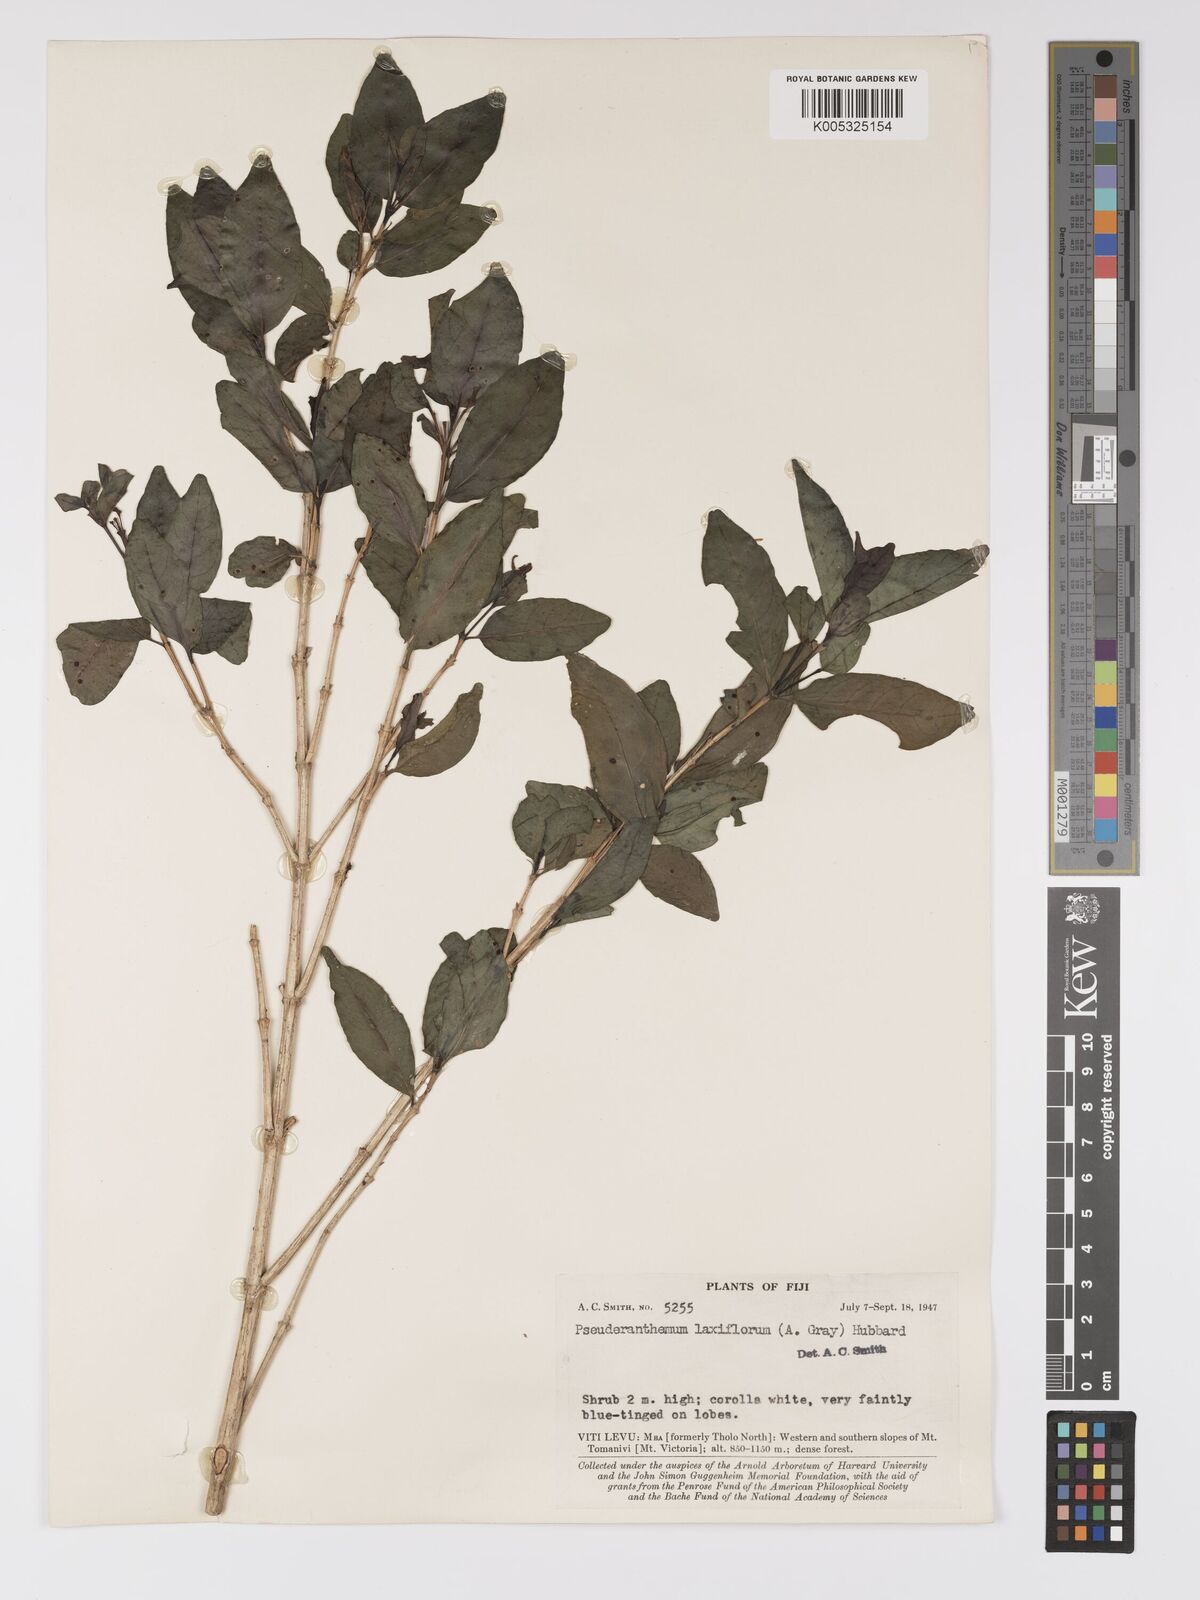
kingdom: Plantae
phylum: Tracheophyta
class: Magnoliopsida
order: Lamiales
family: Acanthaceae
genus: Pseuderanthemum
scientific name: Pseuderanthemum laxiflorum
